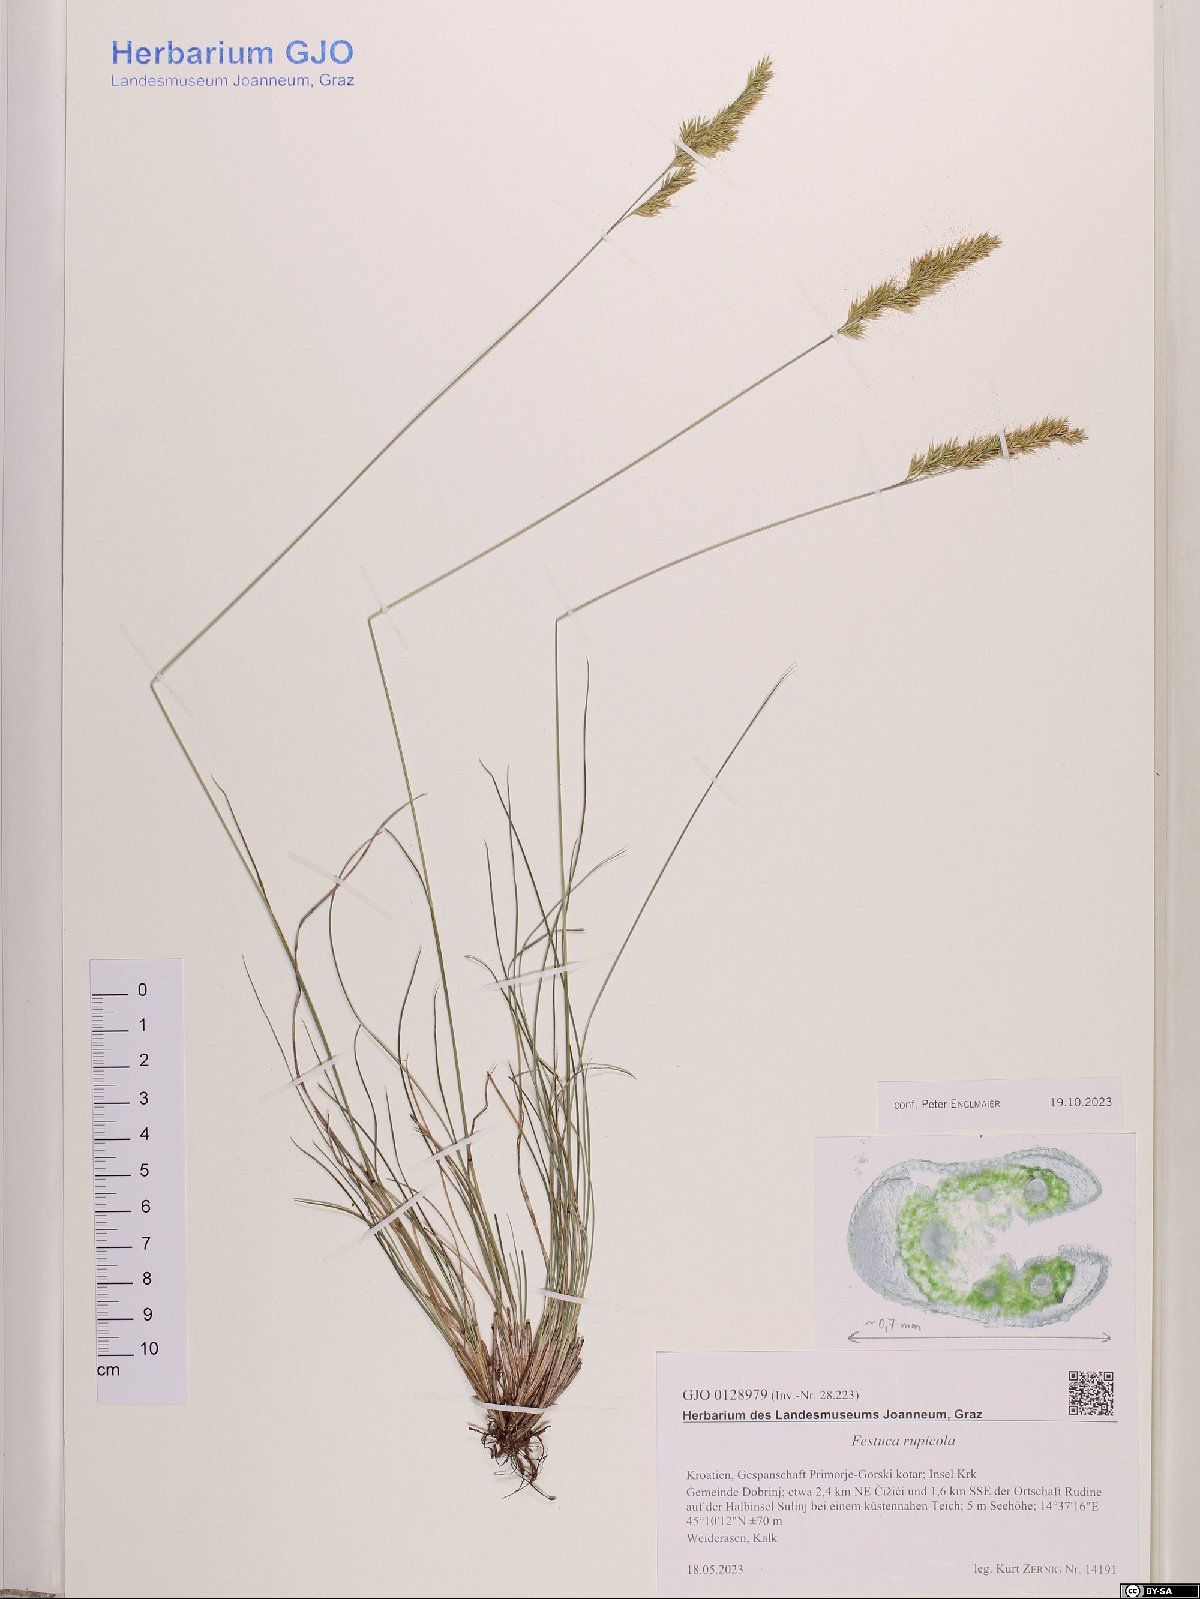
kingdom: Plantae
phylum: Tracheophyta
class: Liliopsida
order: Poales
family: Poaceae
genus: Festuca
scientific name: Festuca rupicola
